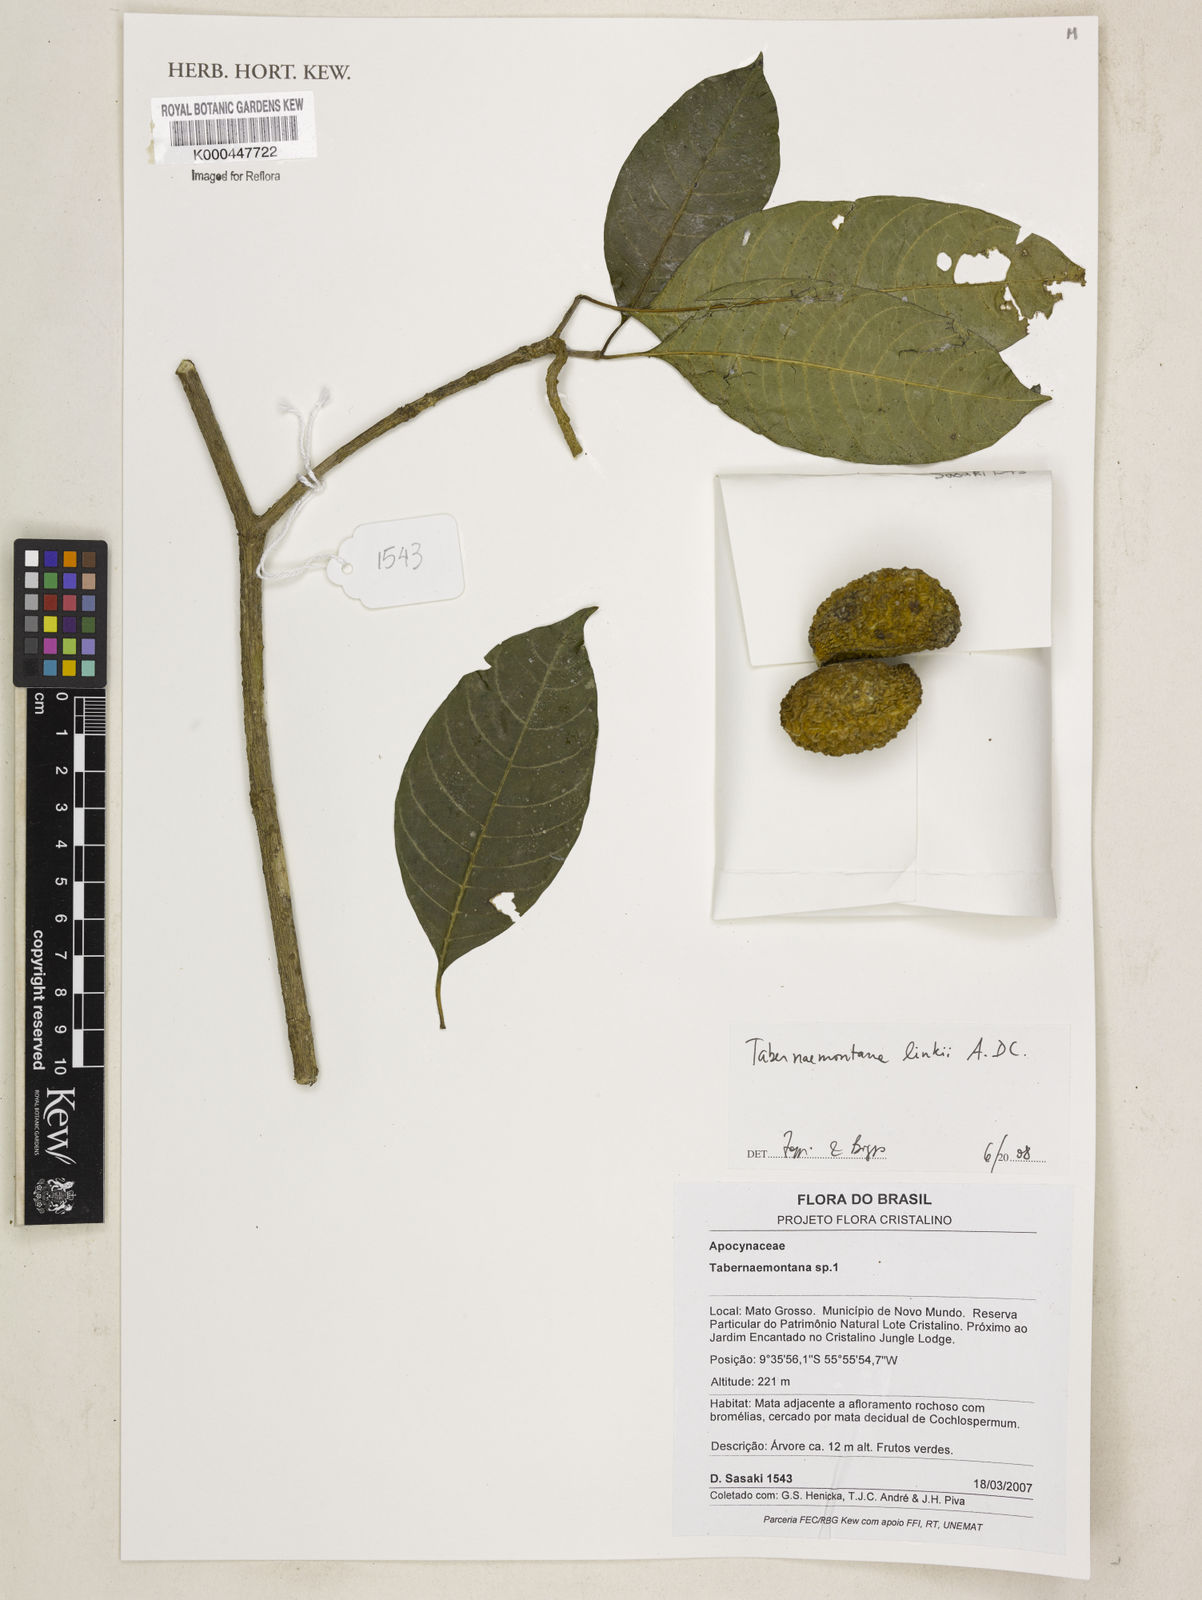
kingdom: Plantae
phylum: Tracheophyta
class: Magnoliopsida
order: Gentianales
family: Apocynaceae
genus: Tabernaemontana
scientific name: Tabernaemontana
